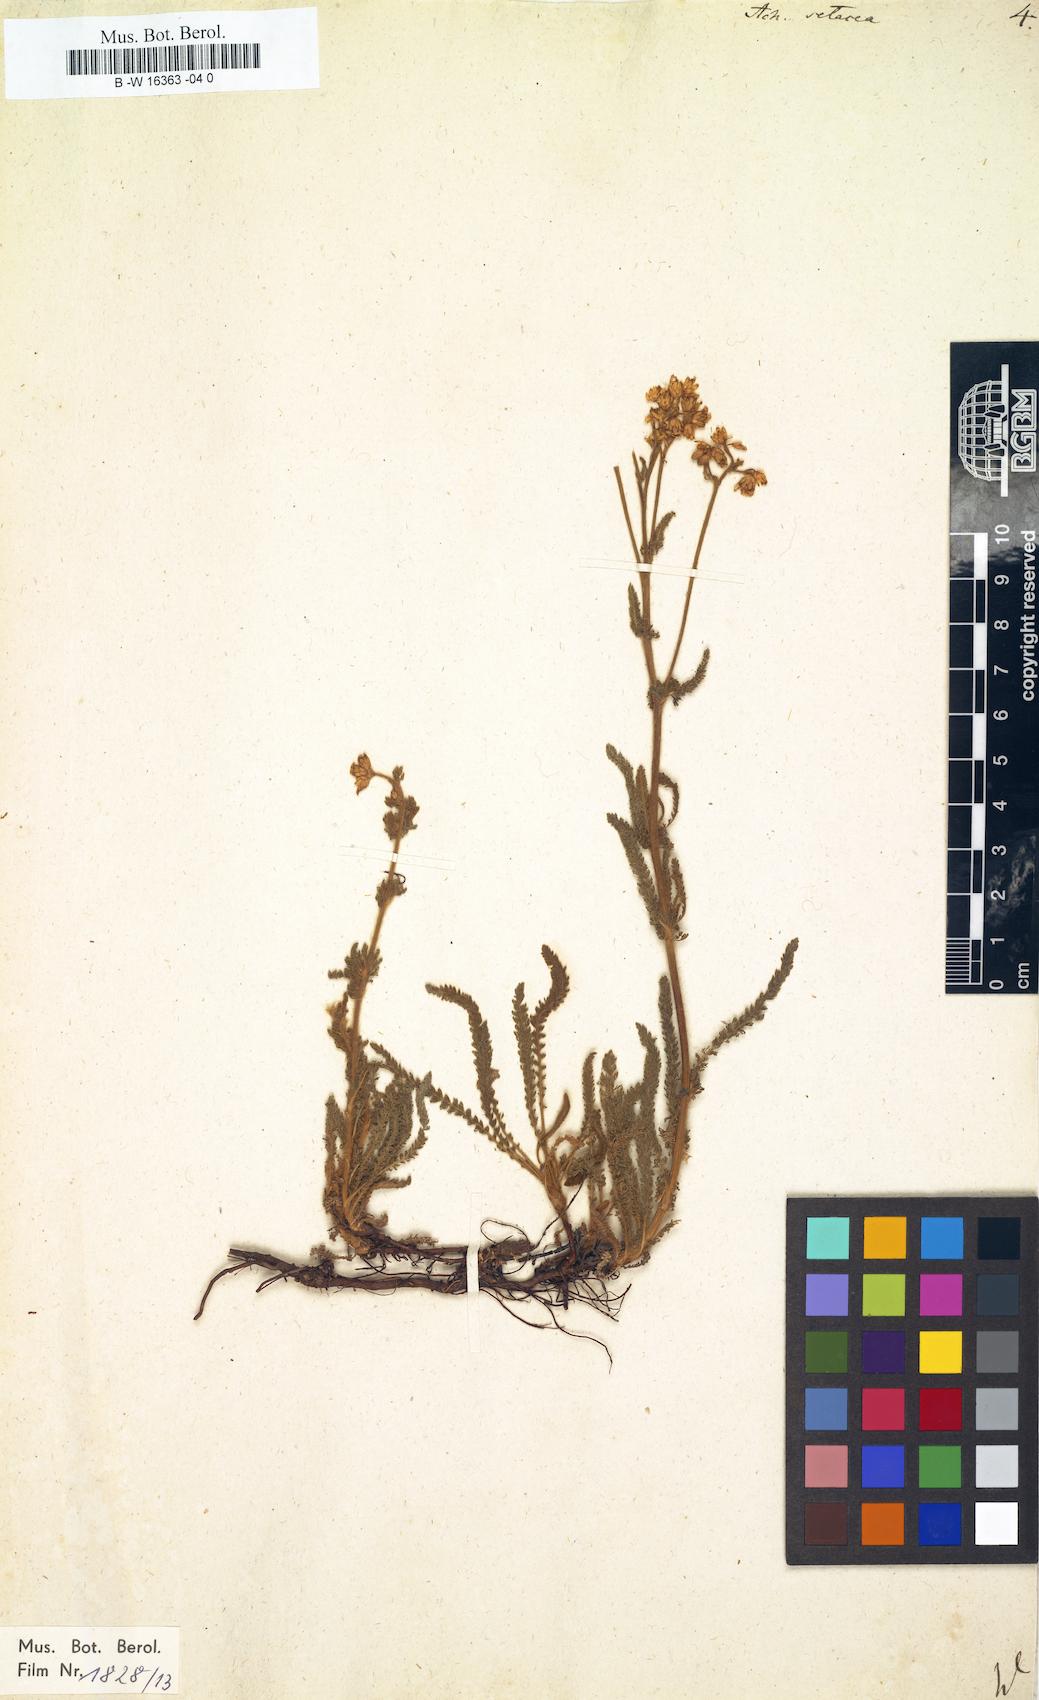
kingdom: Plantae
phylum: Tracheophyta
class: Magnoliopsida
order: Asterales
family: Asteraceae
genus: Achillea
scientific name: Achillea setacea
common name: Bristly yarrow
